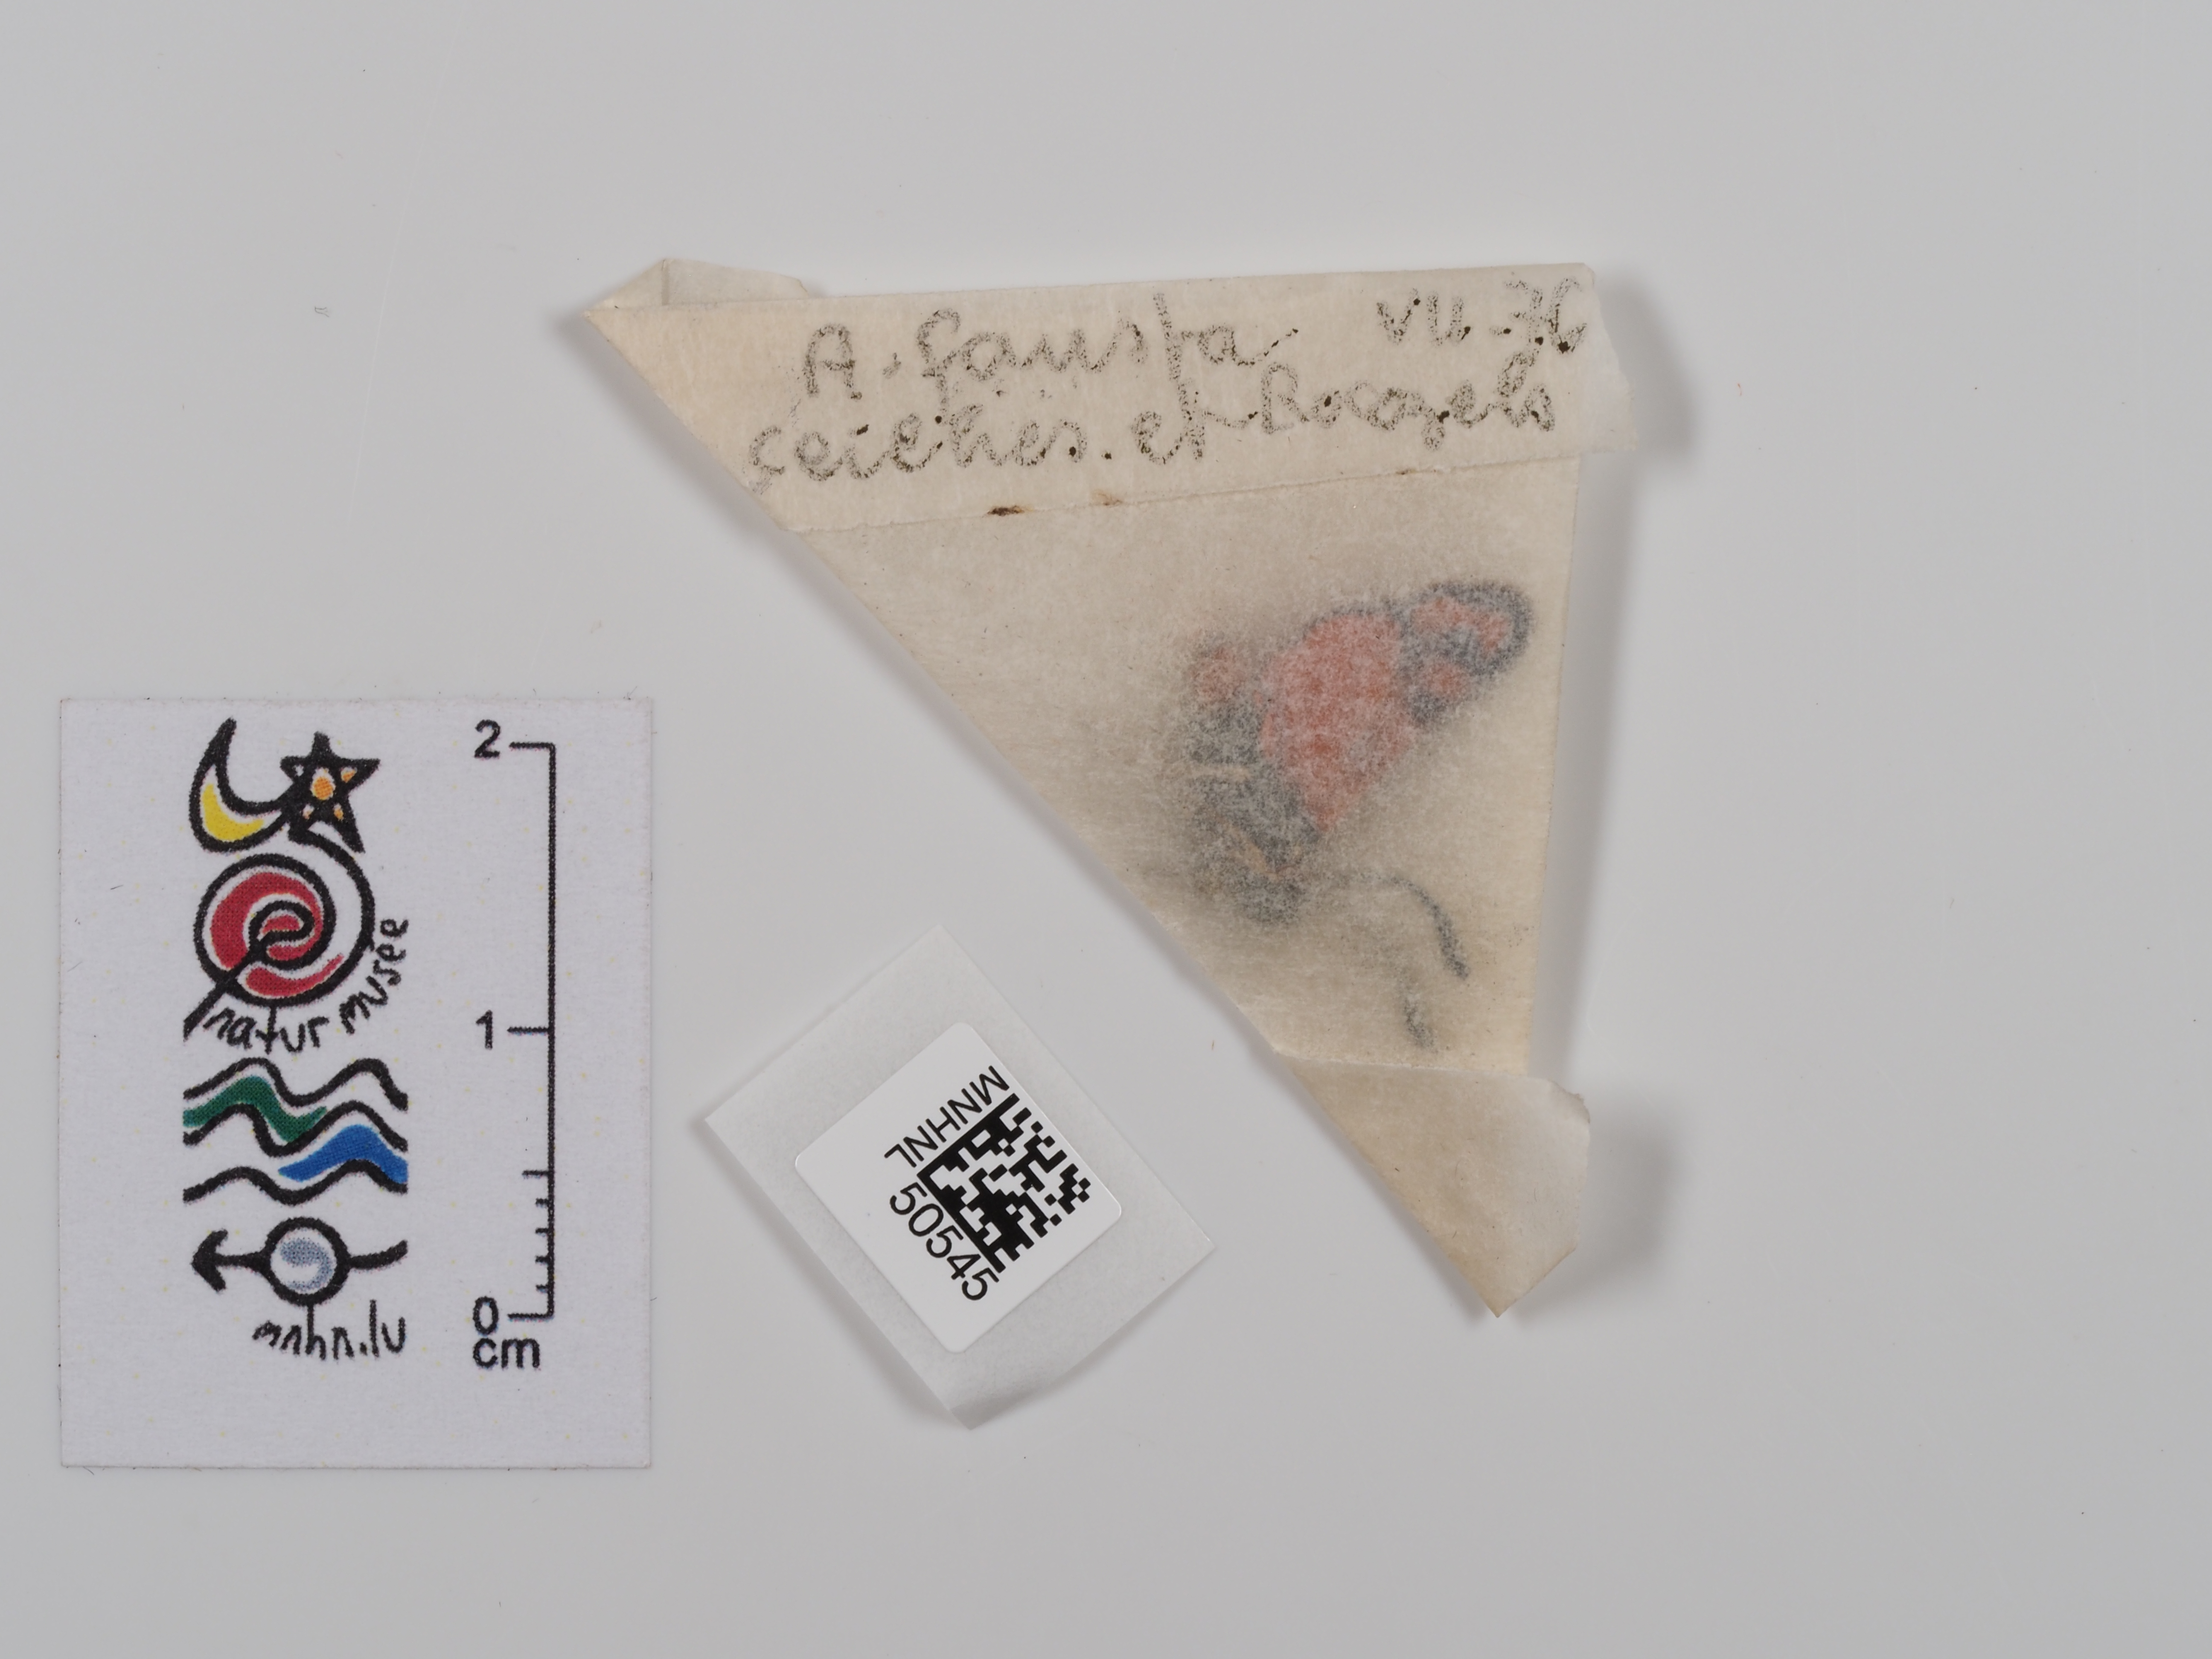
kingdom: Animalia
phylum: Arthropoda
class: Insecta
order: Lepidoptera
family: Zygaenidae
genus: Zygaena
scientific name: Zygaena fausta
